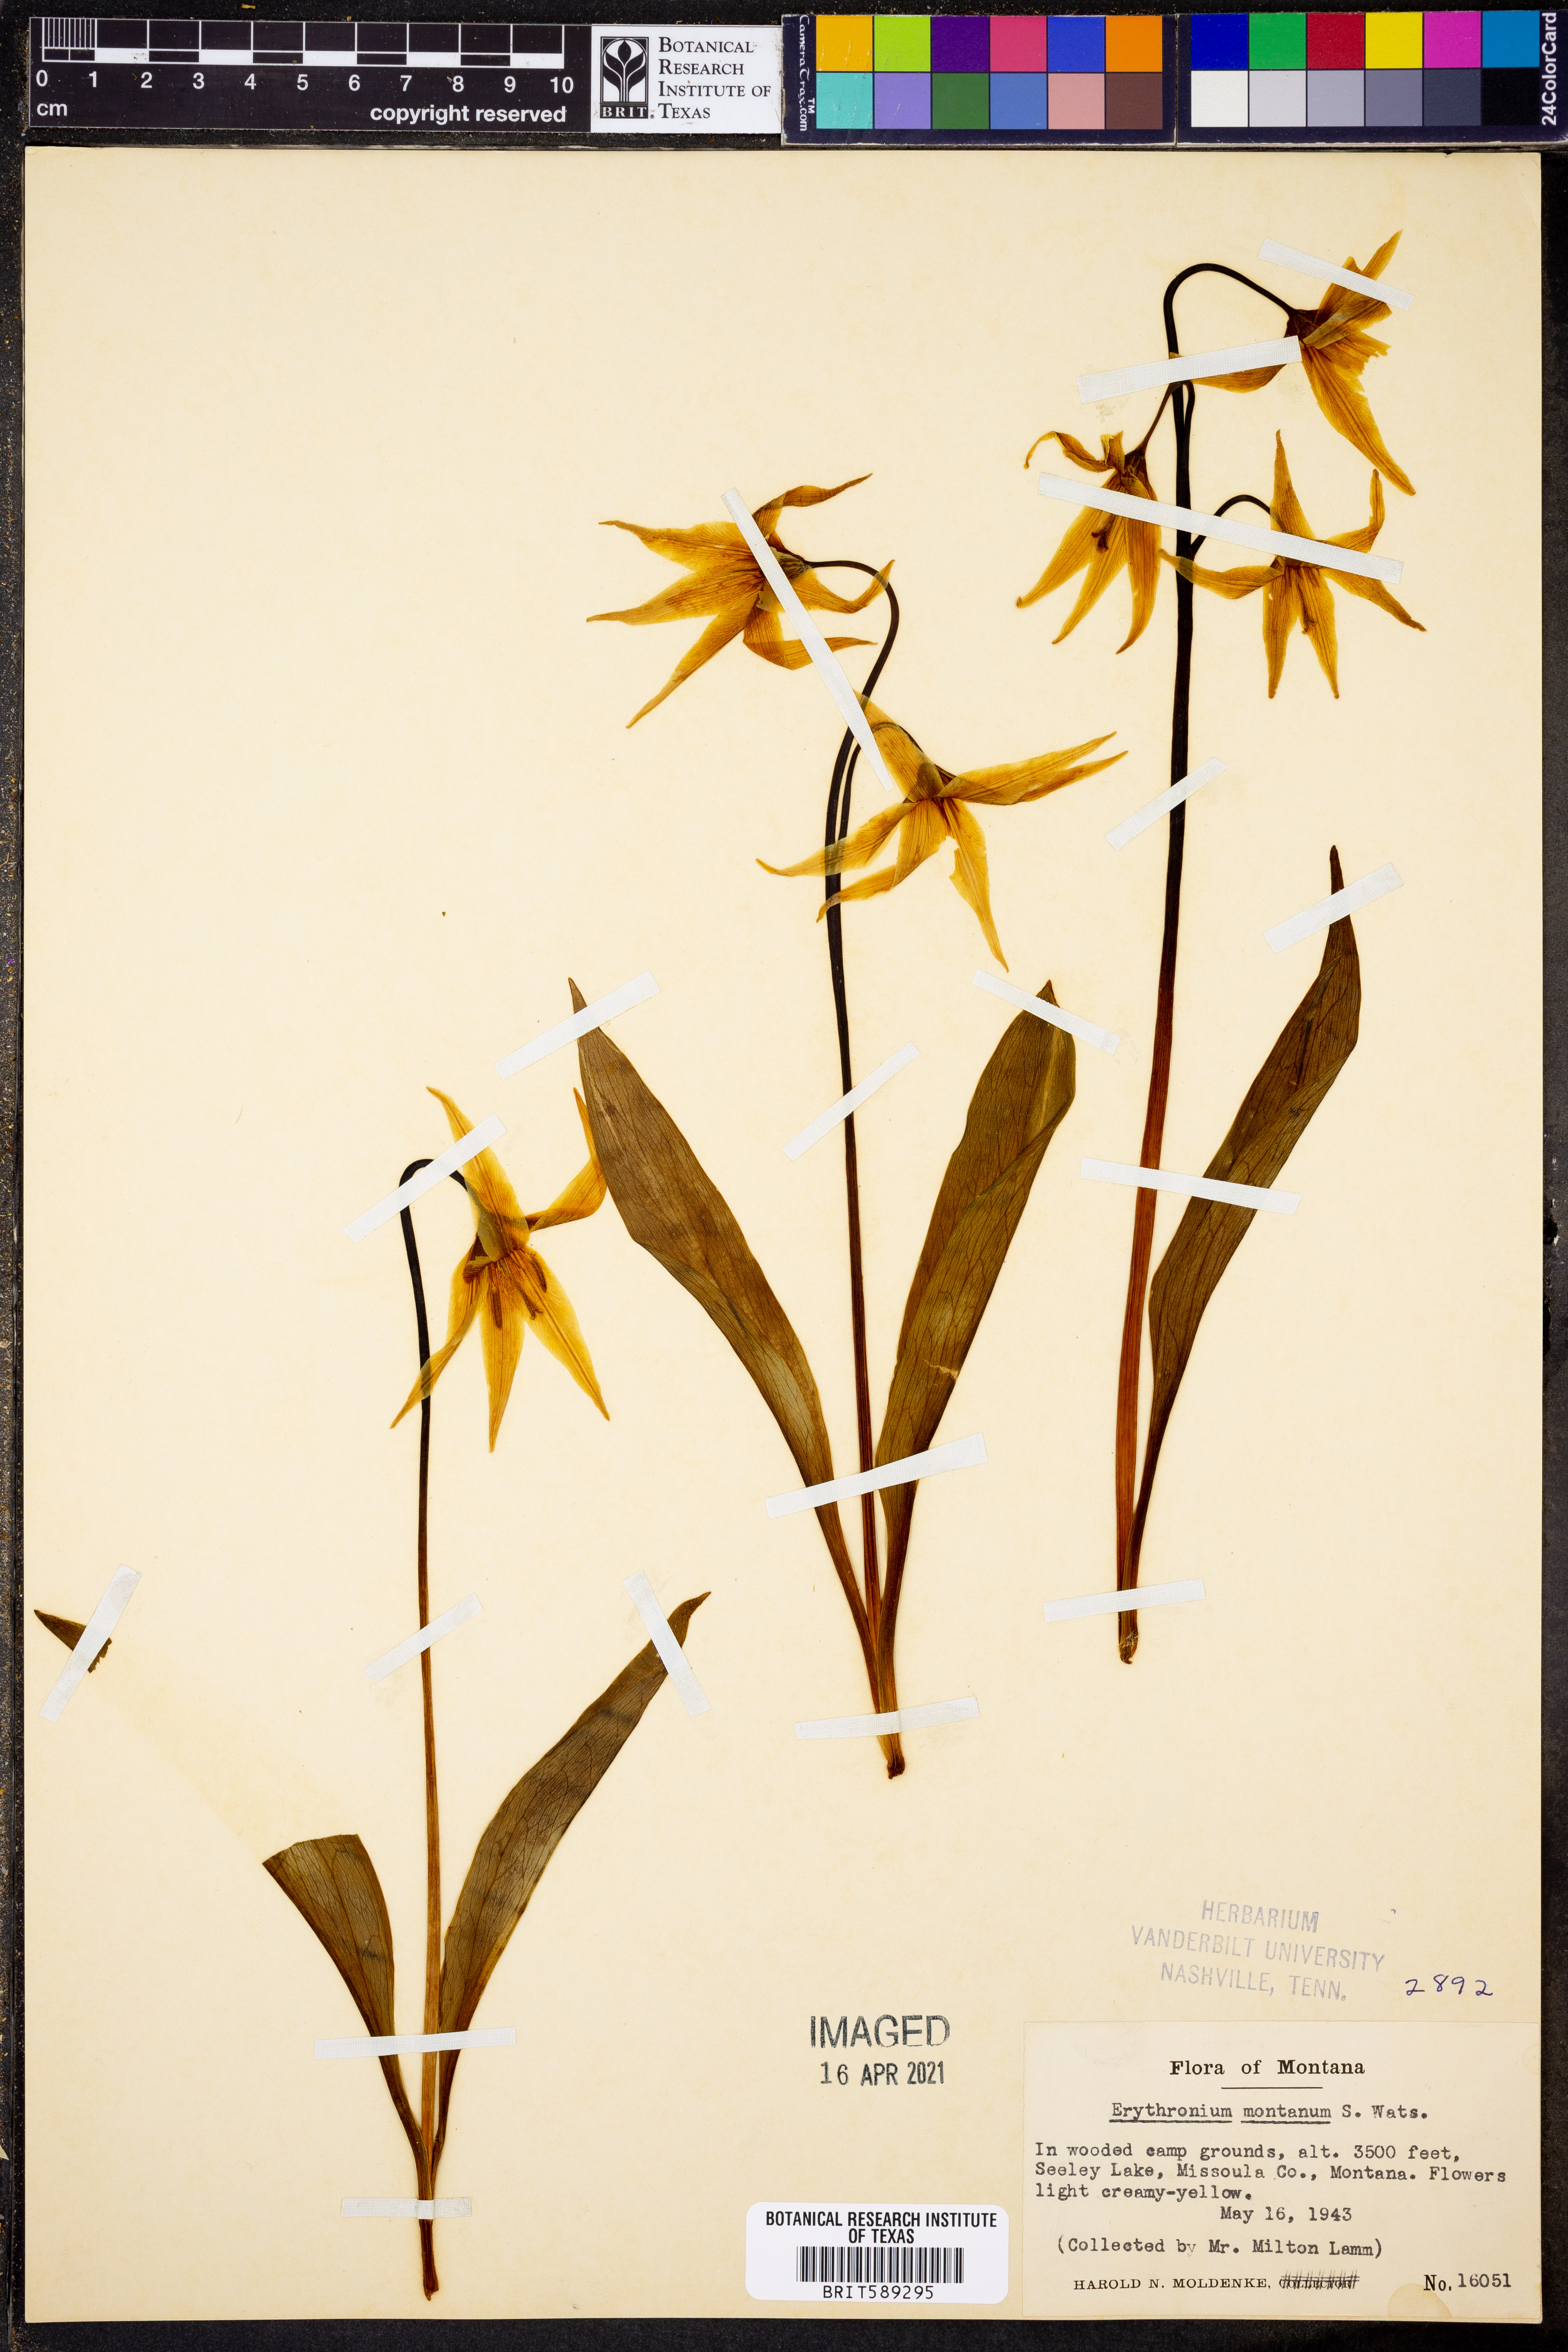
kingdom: Plantae
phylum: Tracheophyta
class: Liliopsida
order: Liliales
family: Liliaceae
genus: Erythronium
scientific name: Erythronium montanum
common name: Avalanche lily
